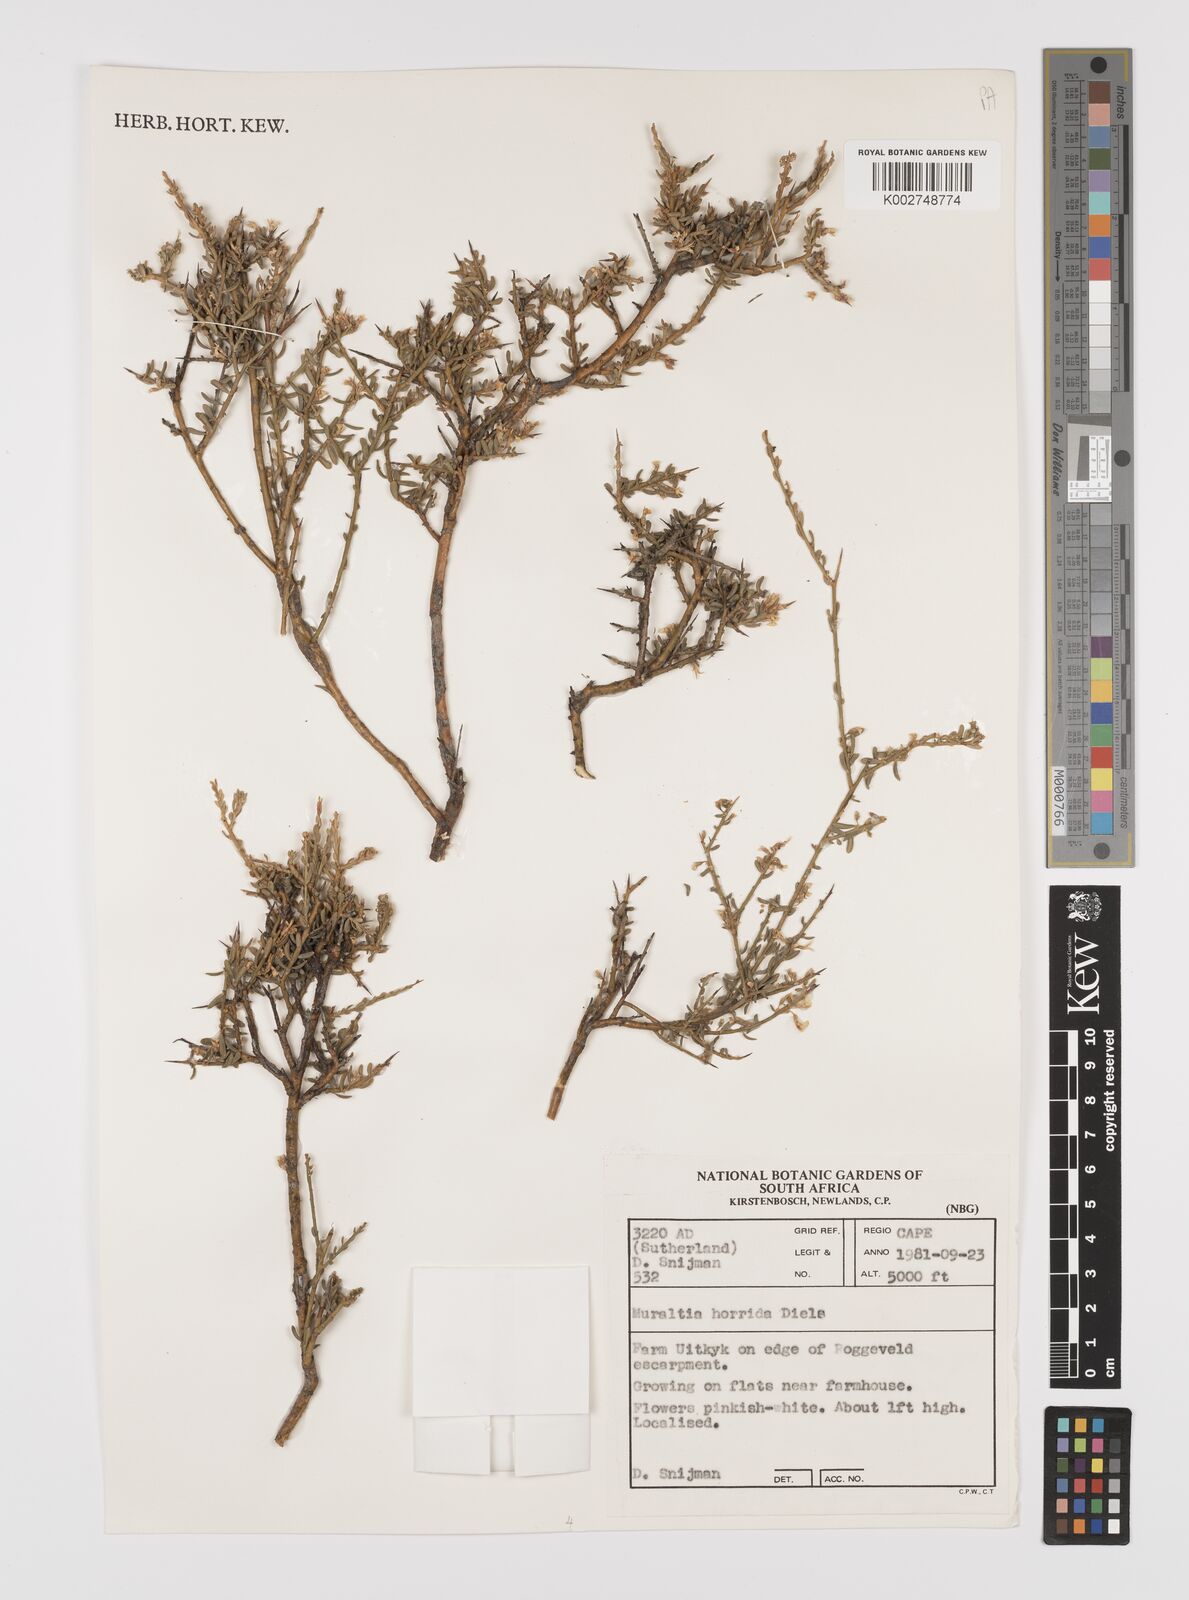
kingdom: Plantae
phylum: Tracheophyta
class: Magnoliopsida
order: Fabales
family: Polygalaceae
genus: Muraltia
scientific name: Muraltia horrida
